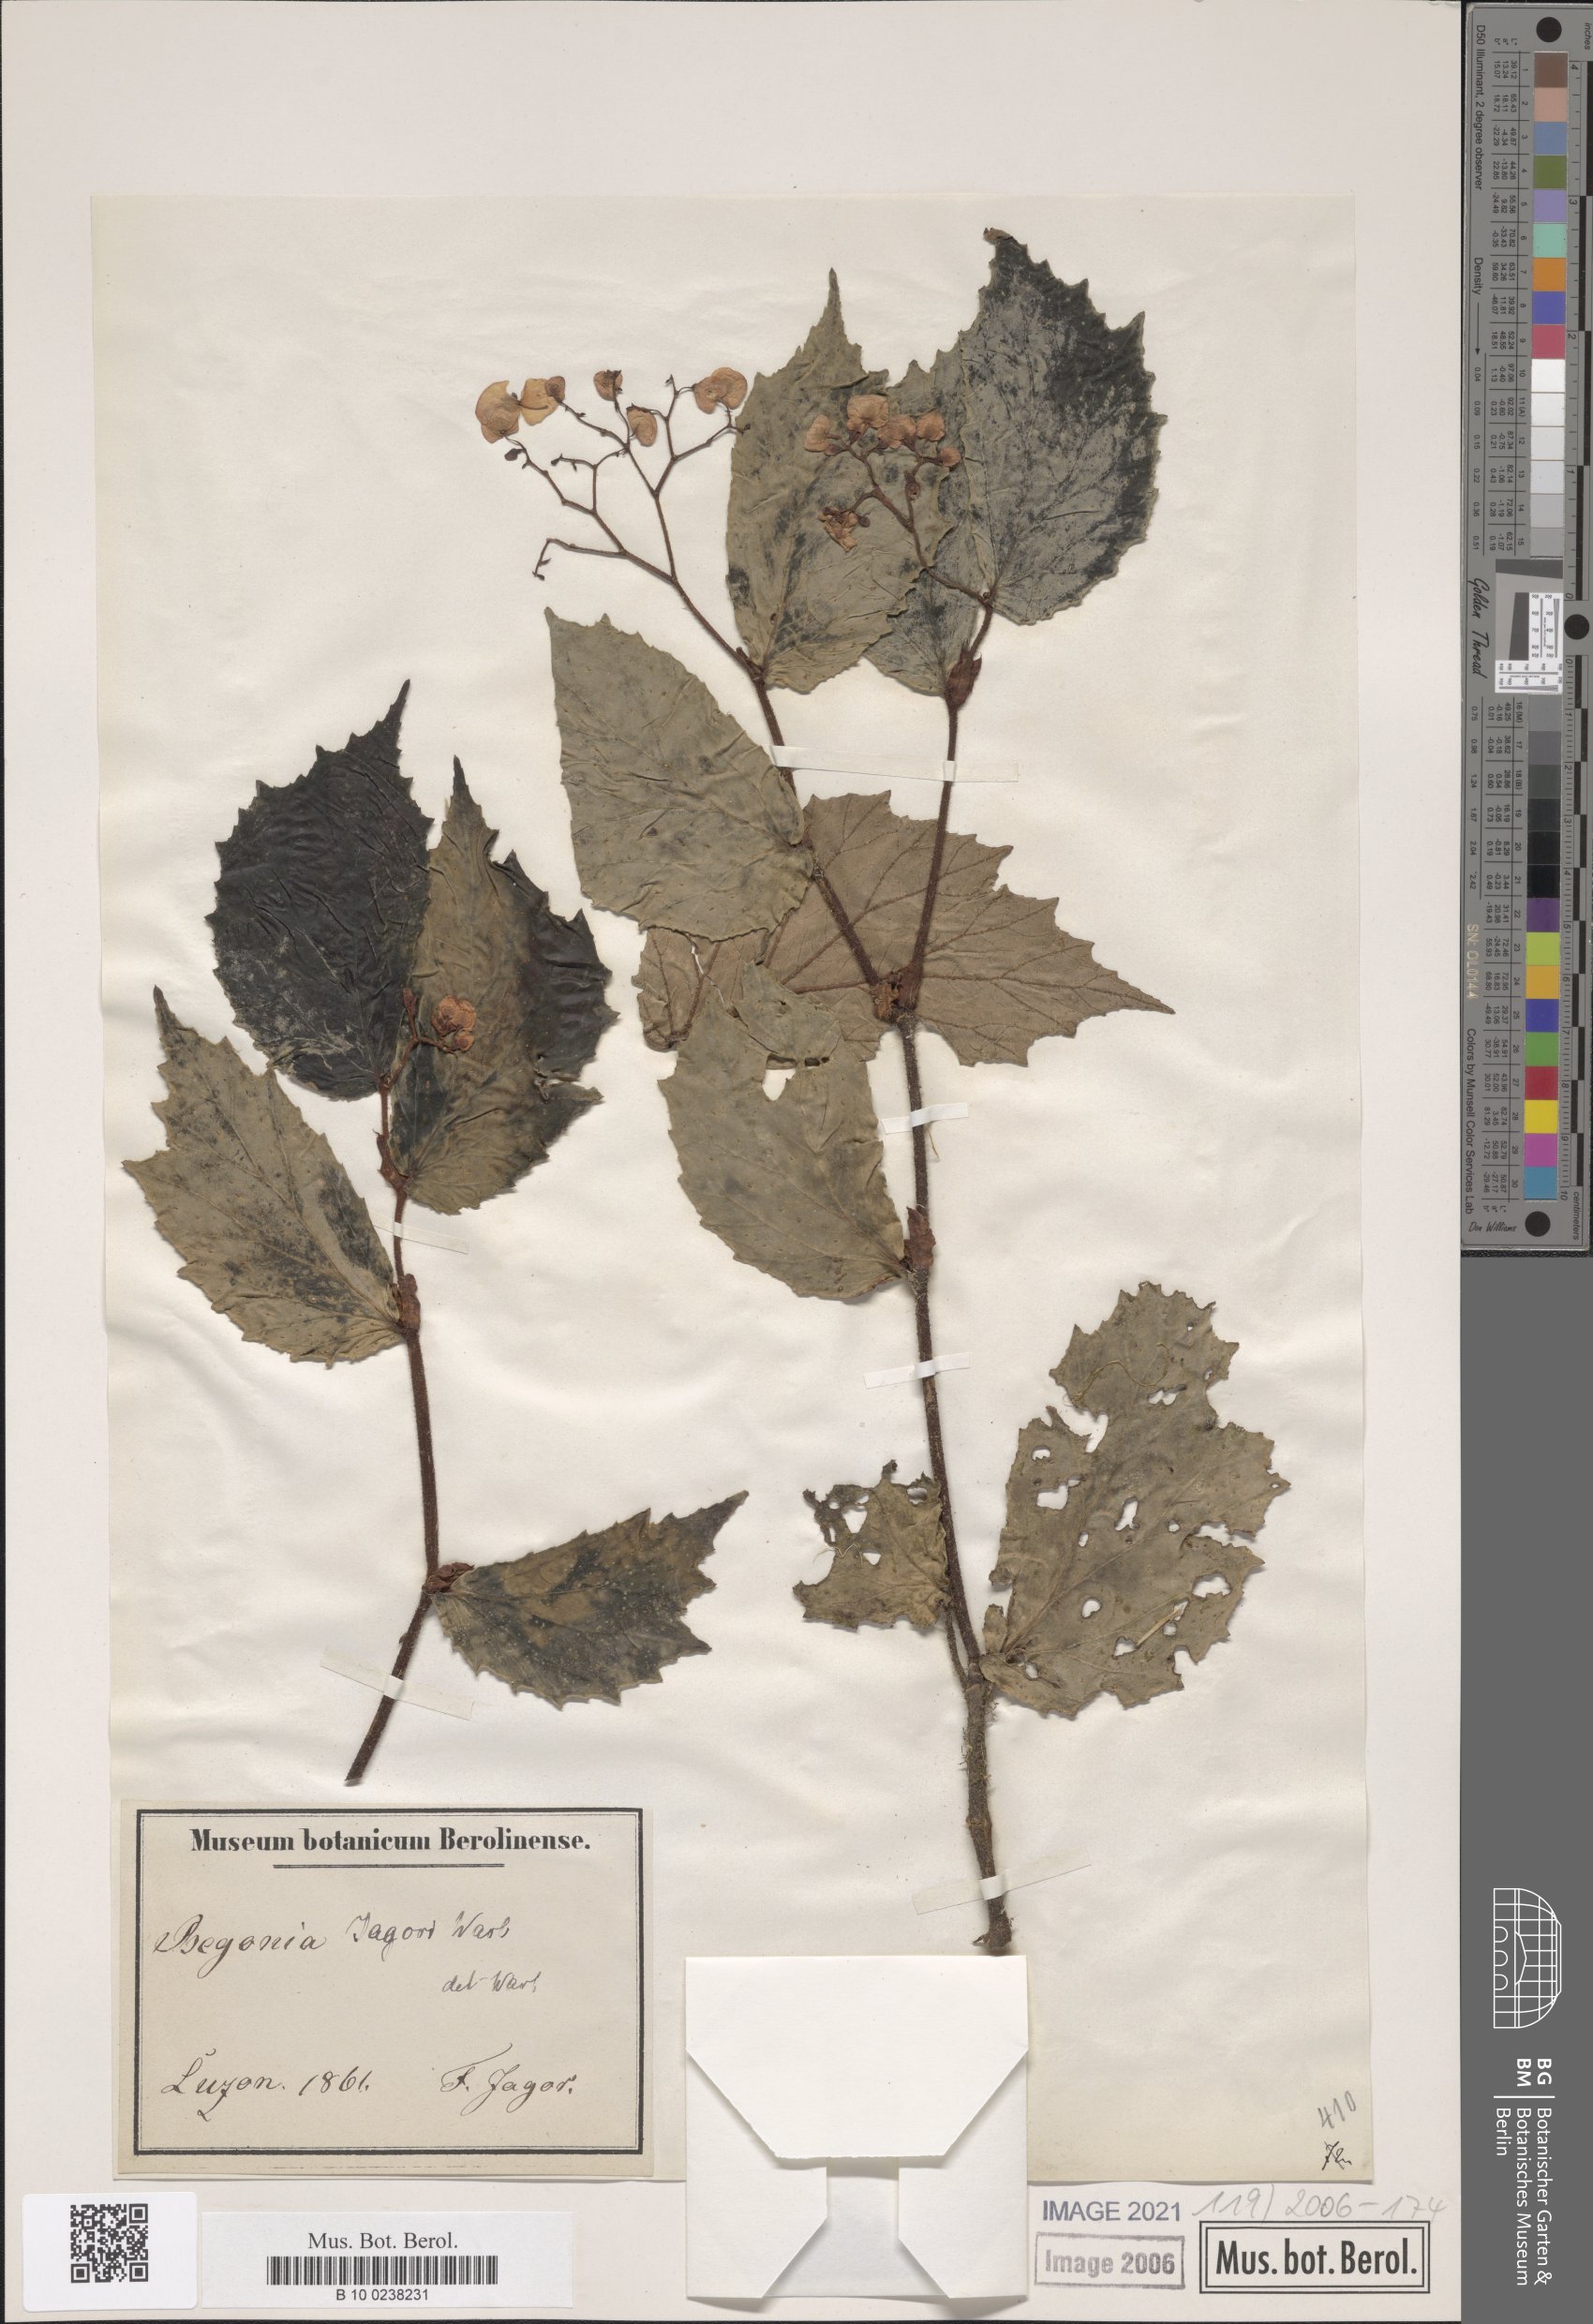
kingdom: Plantae
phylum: Tracheophyta
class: Magnoliopsida
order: Cucurbitales
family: Begoniaceae
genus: Begonia
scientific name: Begonia jagorii
